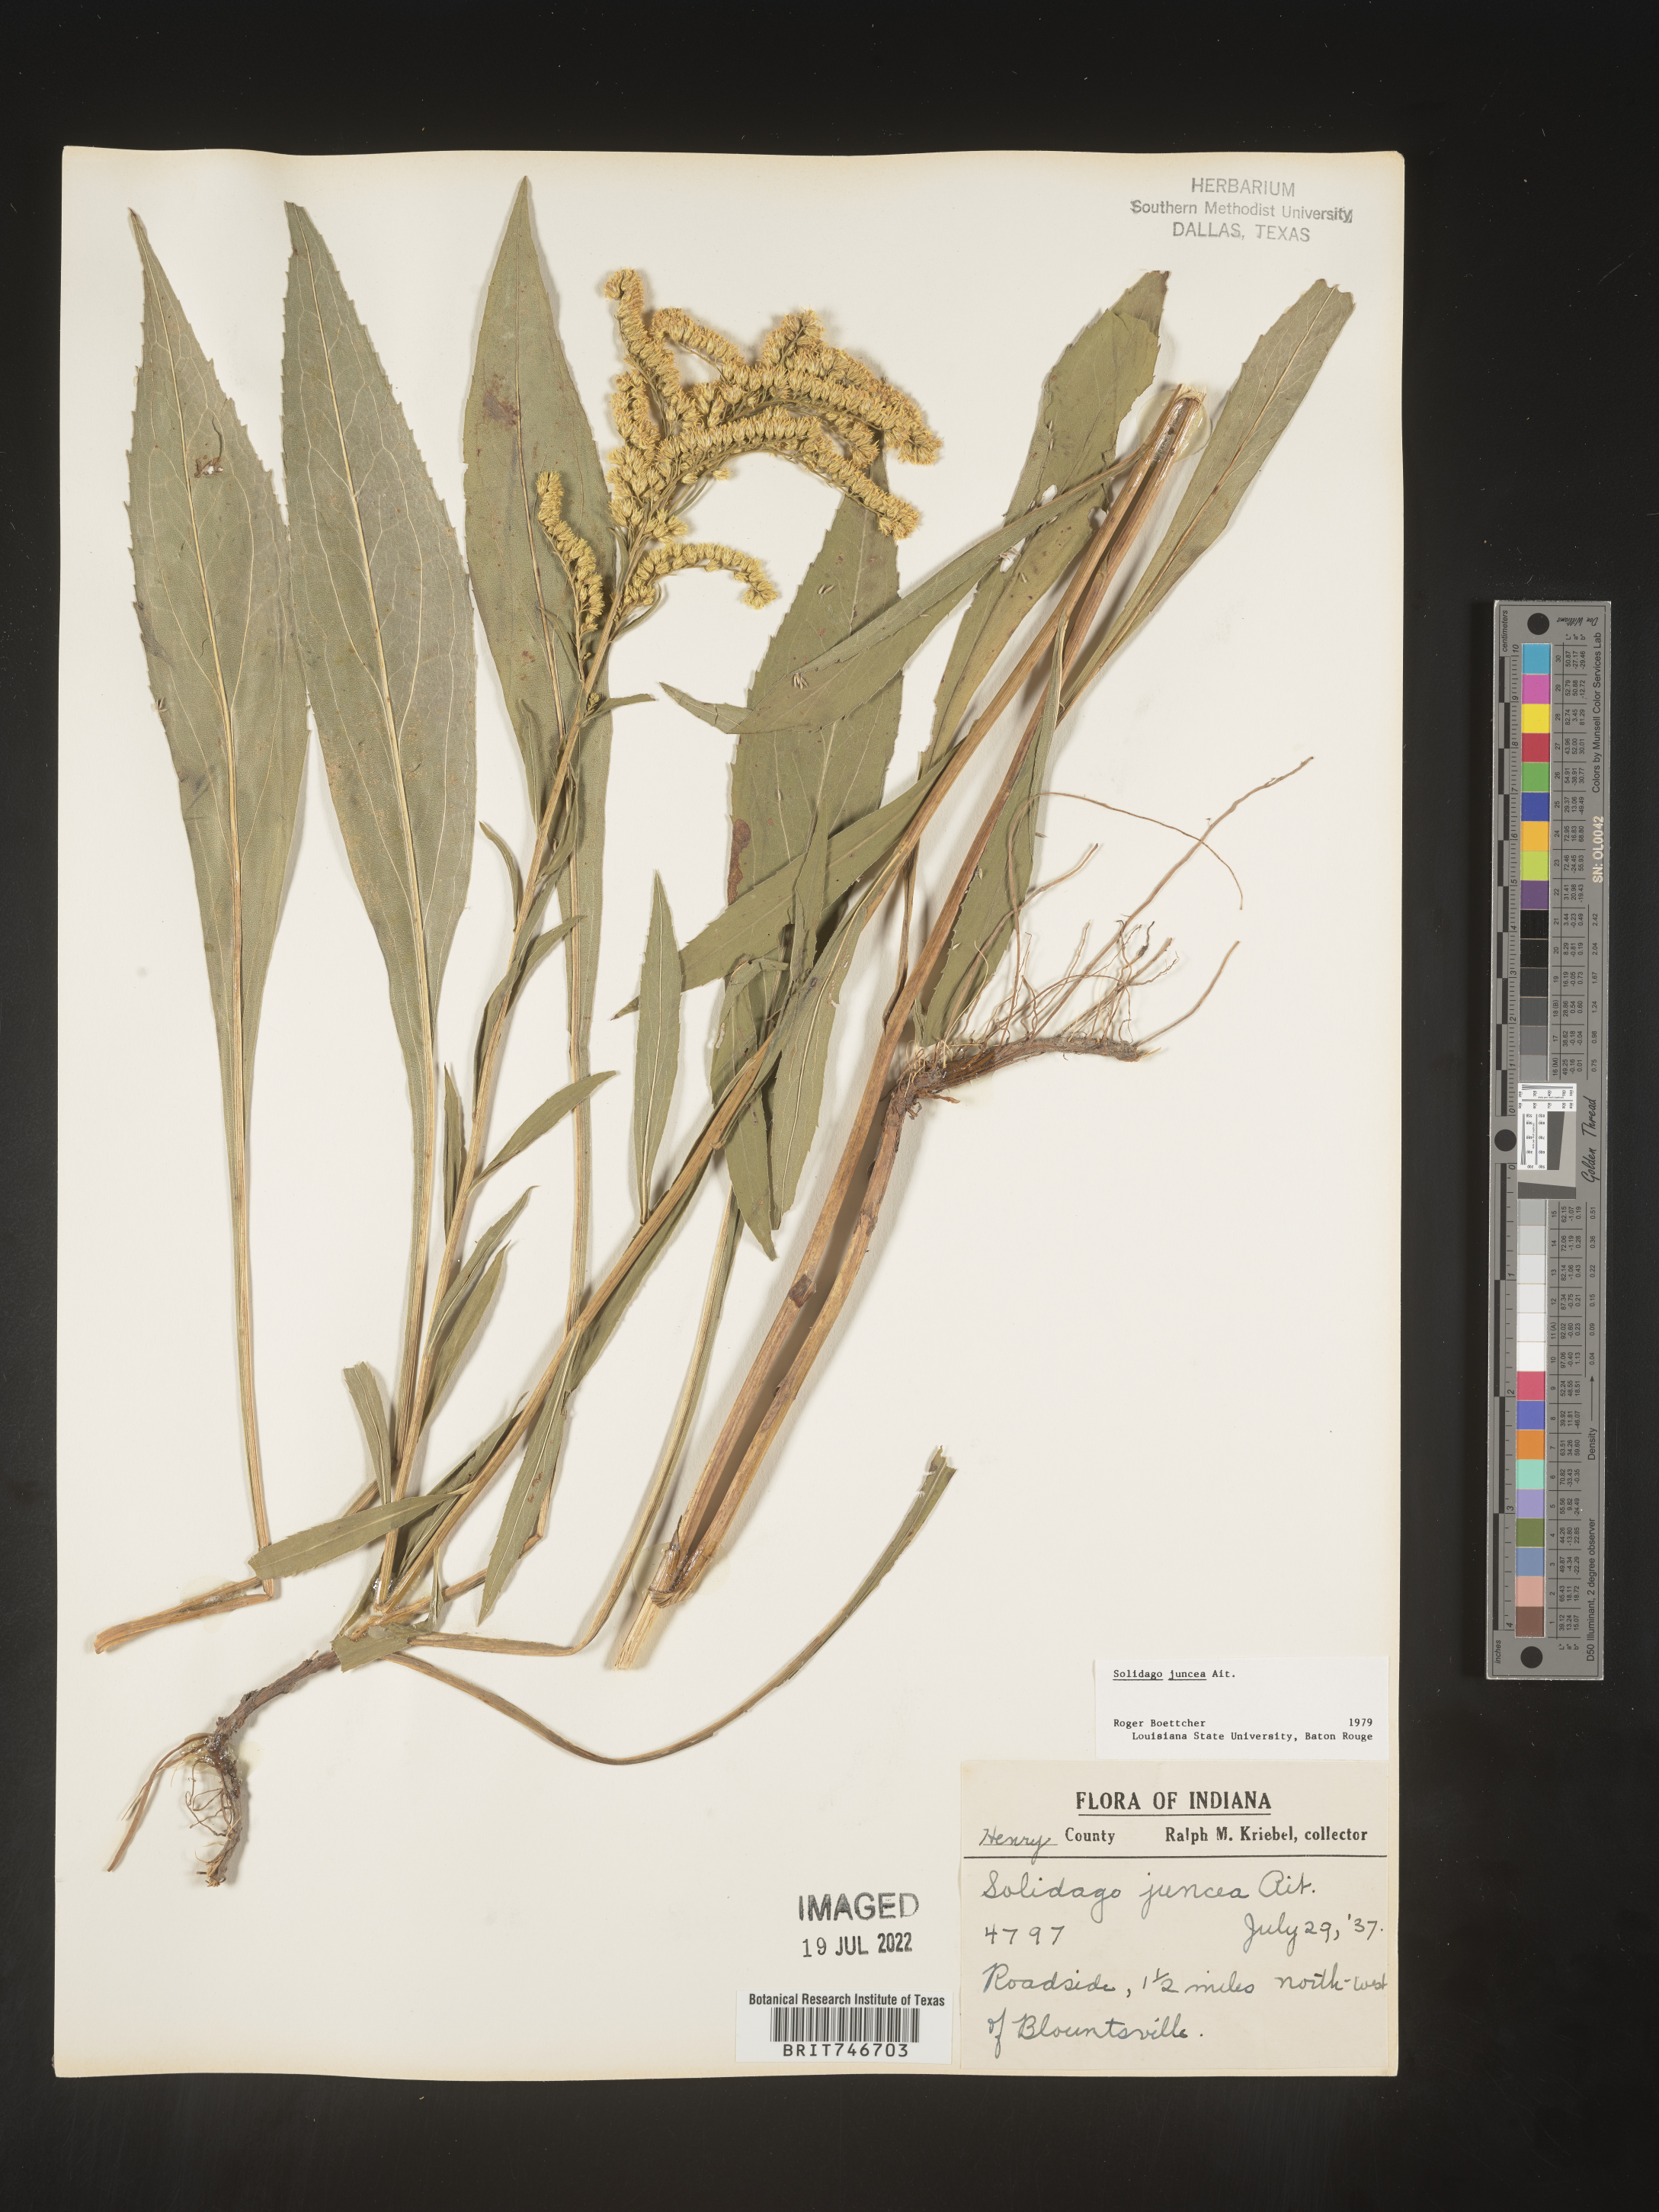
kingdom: Plantae
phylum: Tracheophyta
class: Magnoliopsida
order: Asterales
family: Asteraceae
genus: Solidago
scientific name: Solidago juncea
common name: Early goldenrod
